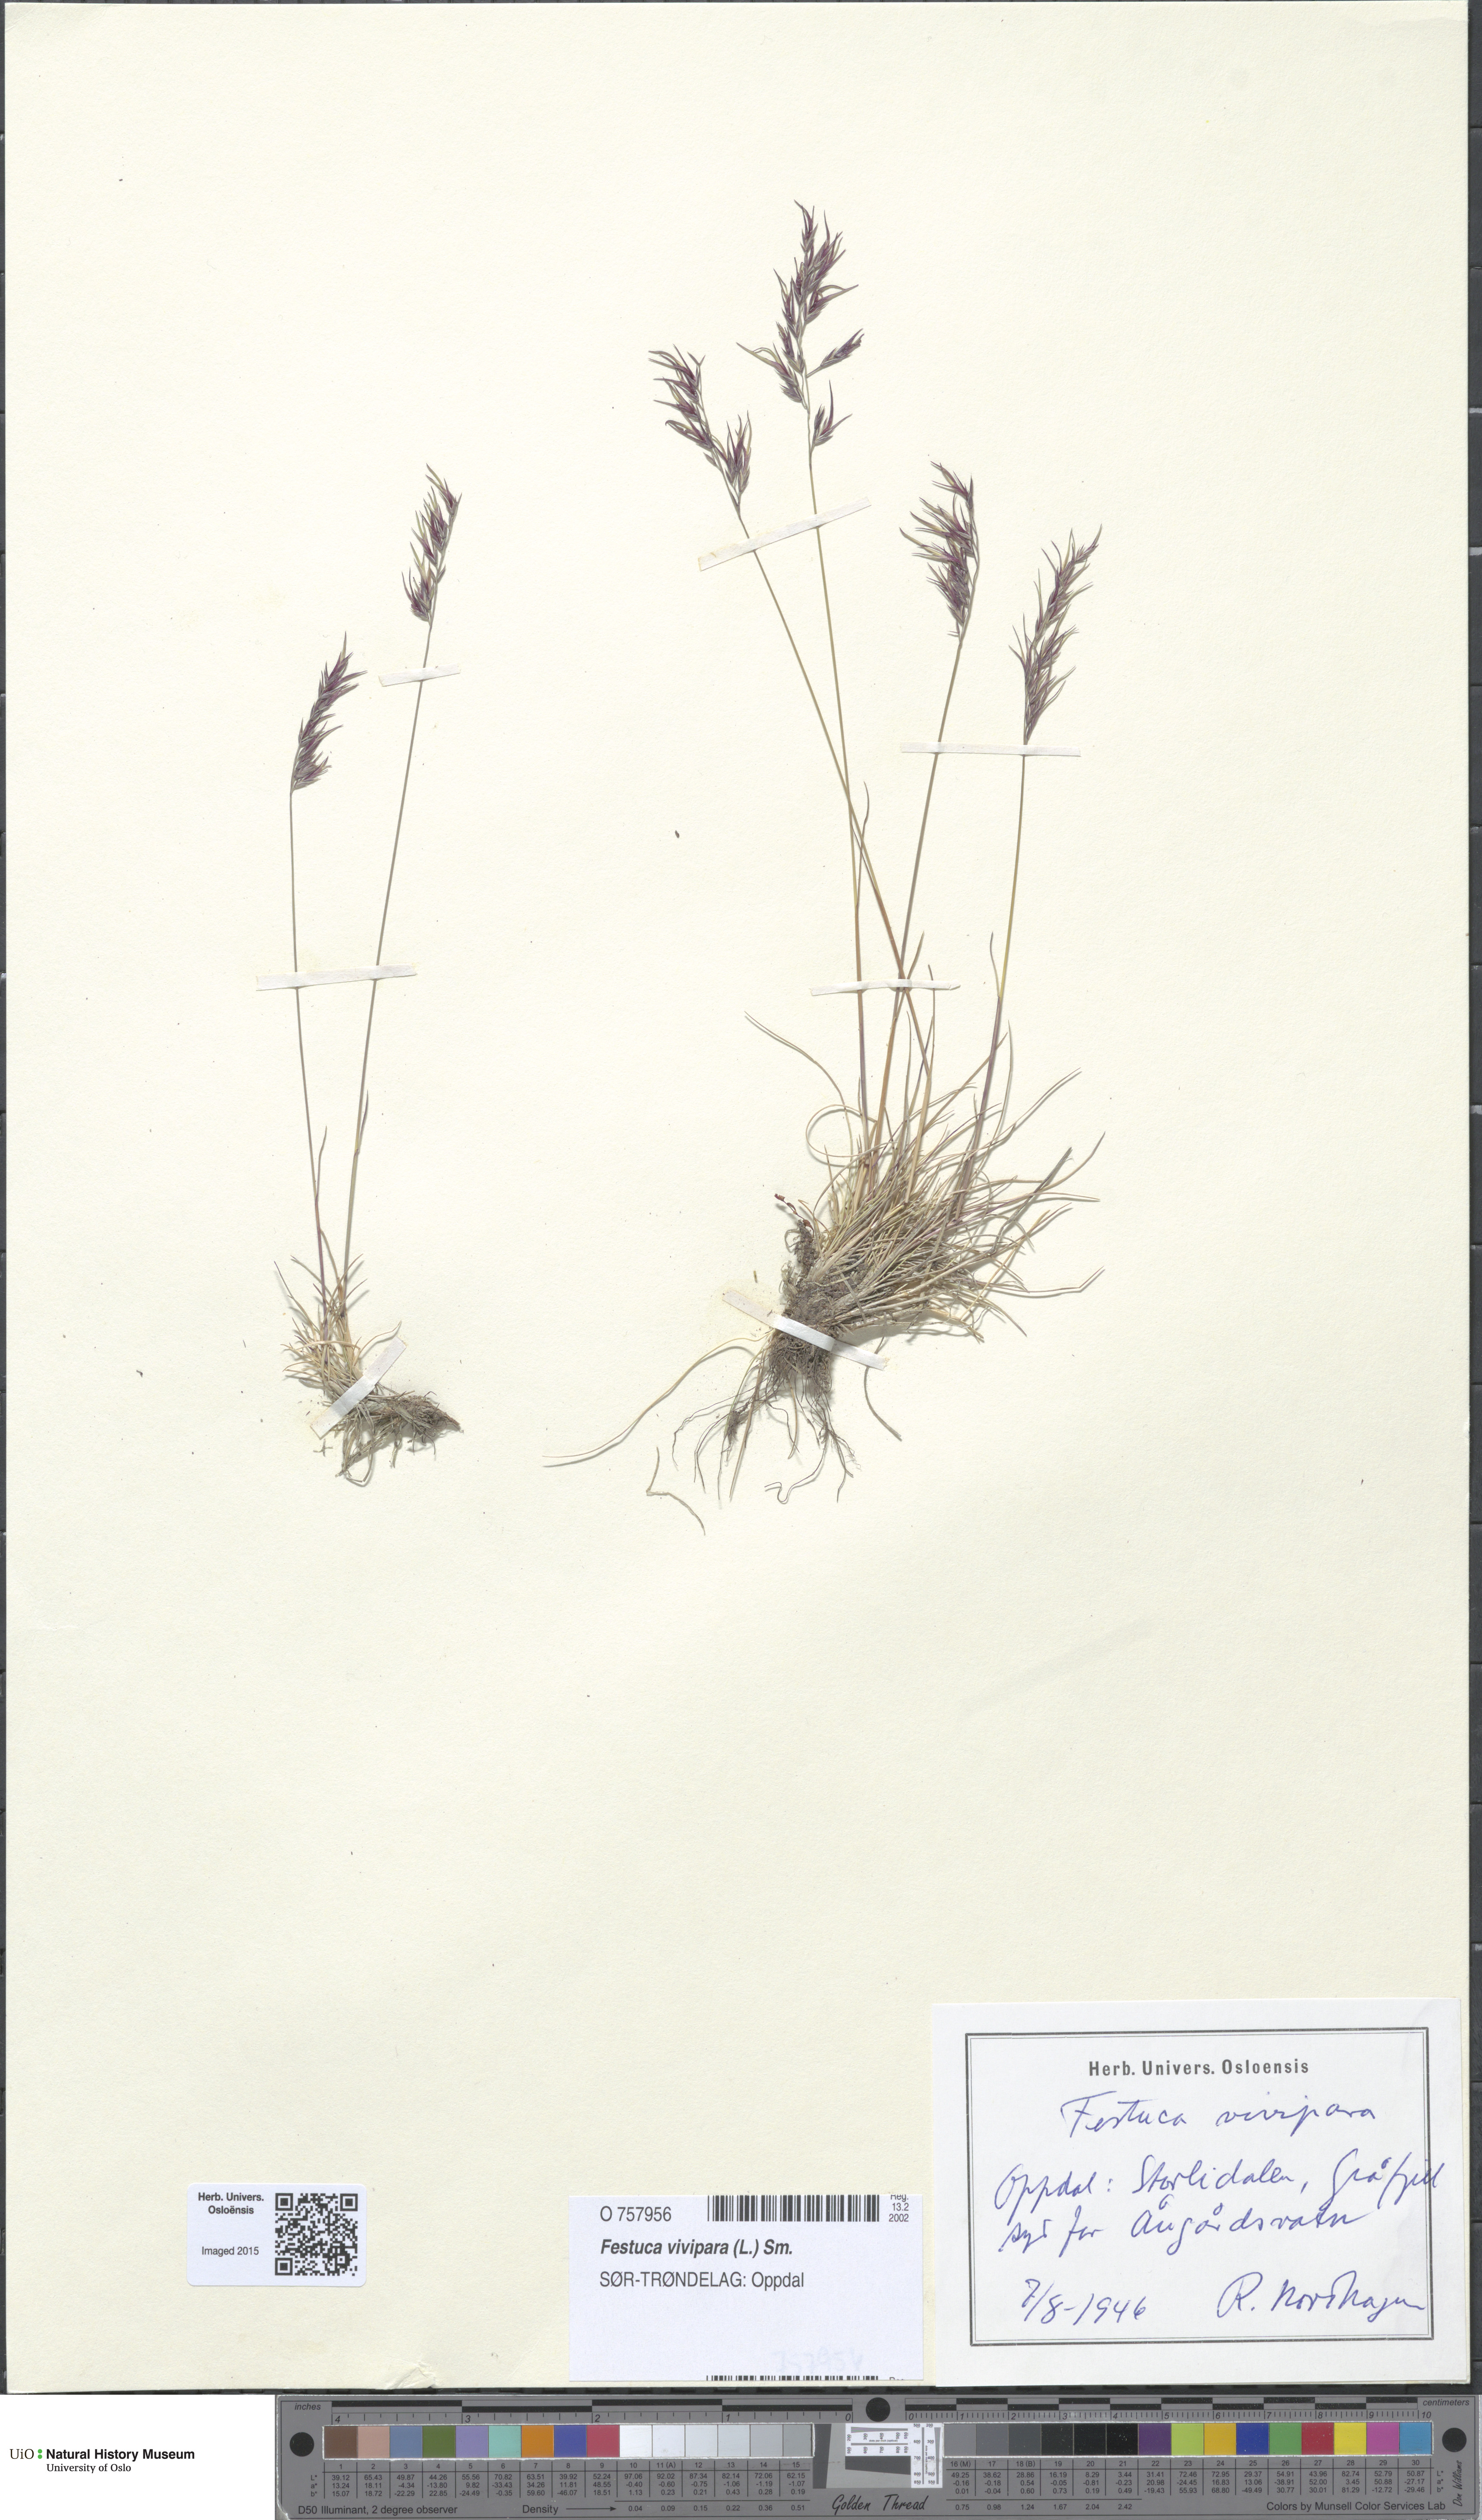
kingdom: Plantae
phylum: Tracheophyta
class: Liliopsida
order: Poales
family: Poaceae
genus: Festuca
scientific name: Festuca vivipara
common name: Viviparous sheep's-fescue
